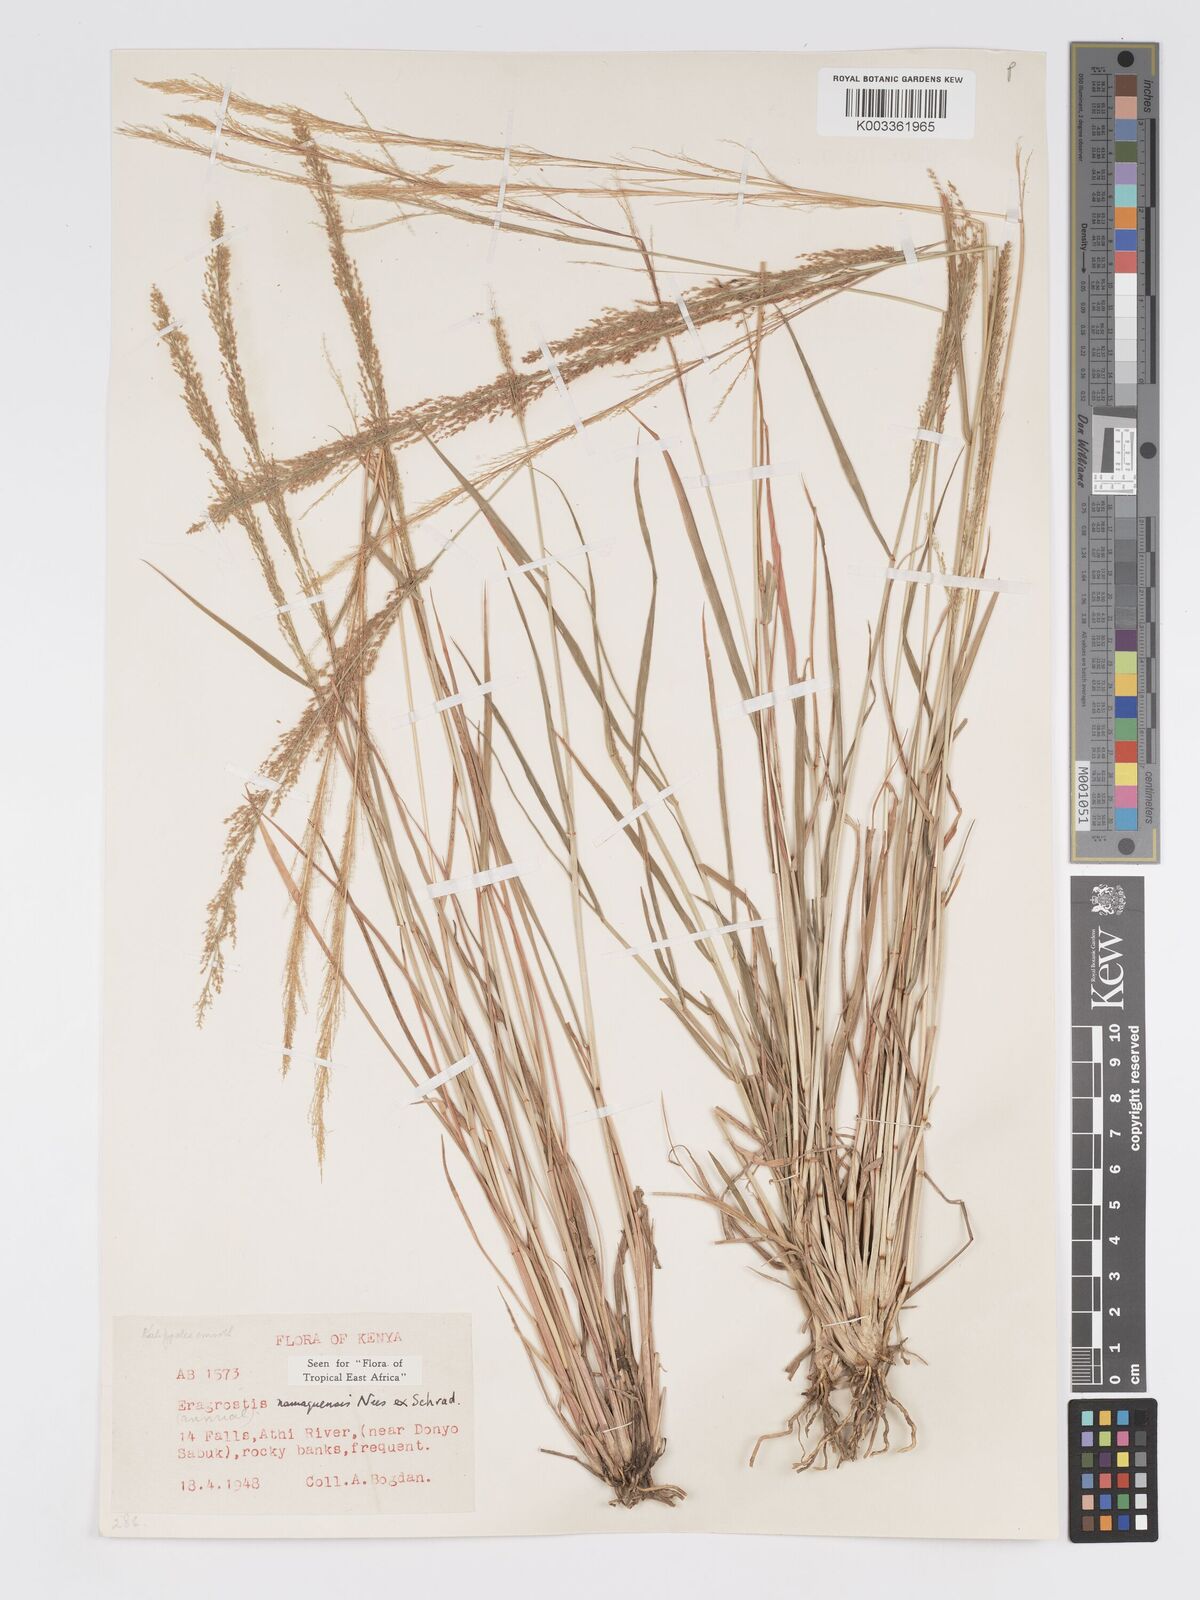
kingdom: Plantae
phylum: Tracheophyta
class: Liliopsida
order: Poales
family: Poaceae
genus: Eragrostis
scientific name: Eragrostis japonica
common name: Pond lovegrass
